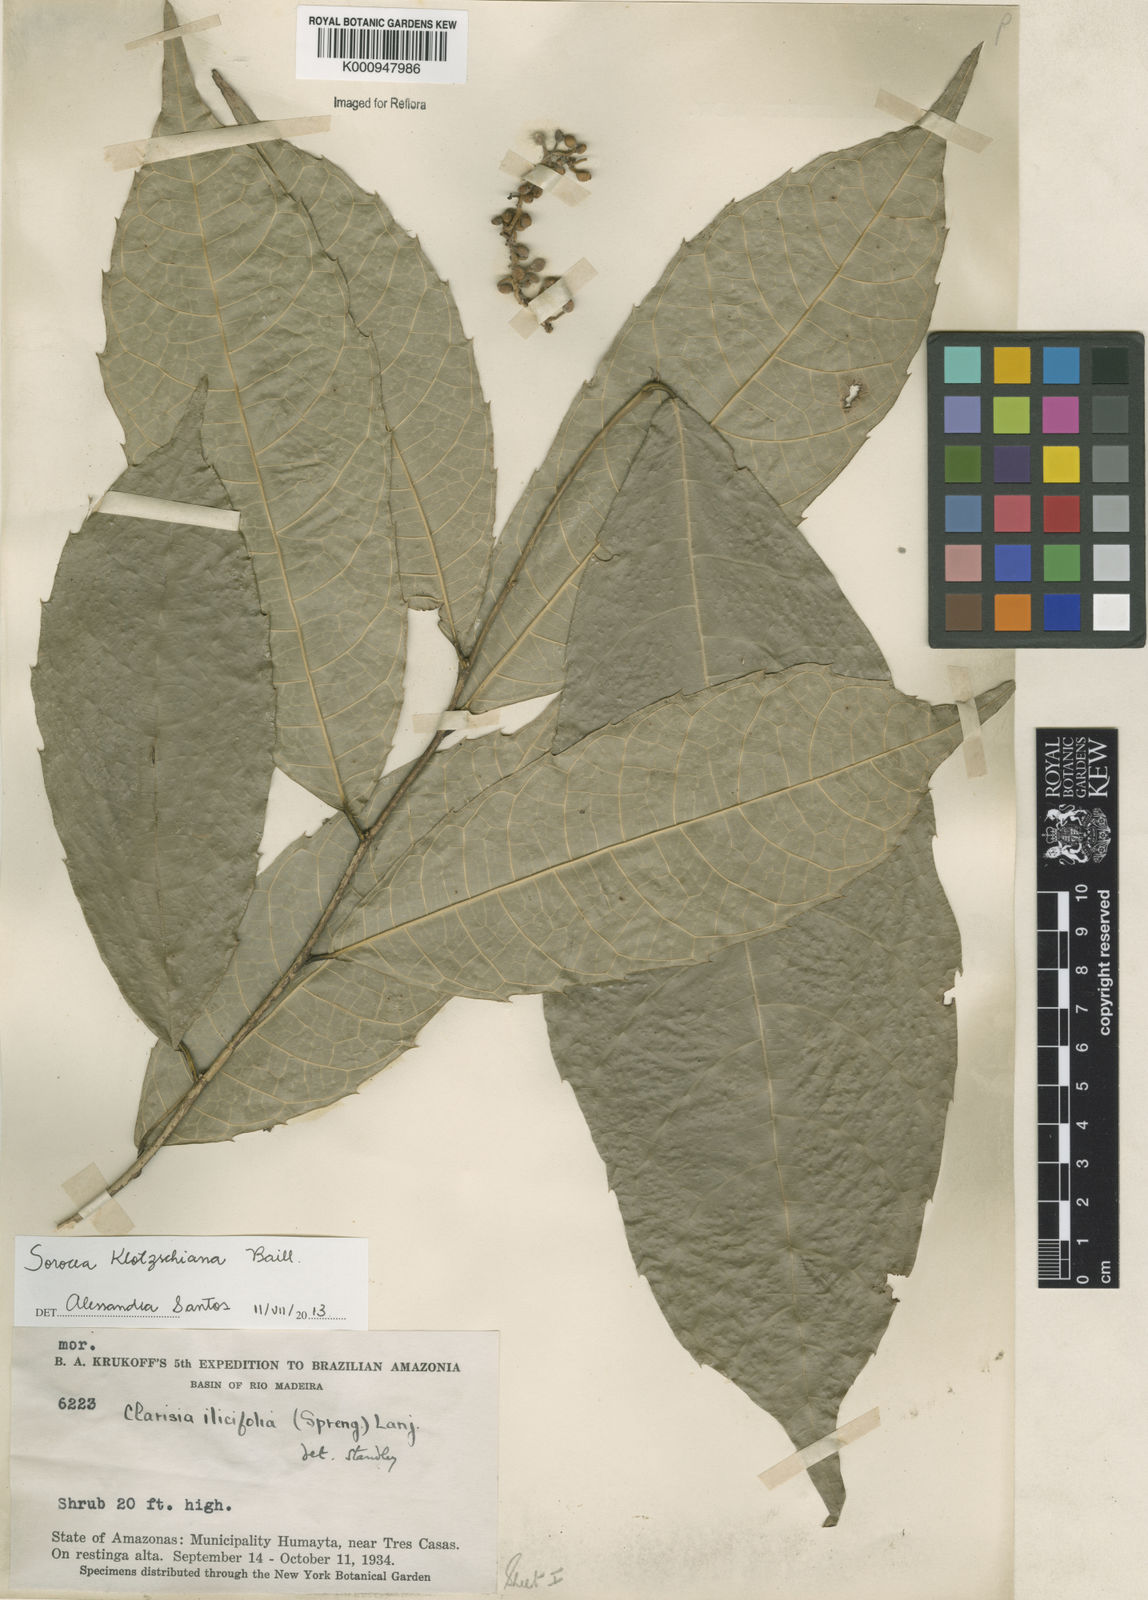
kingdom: Plantae
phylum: Tracheophyta
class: Magnoliopsida
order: Rosales
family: Moraceae
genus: Sorocea
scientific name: Sorocea guilleminiana
